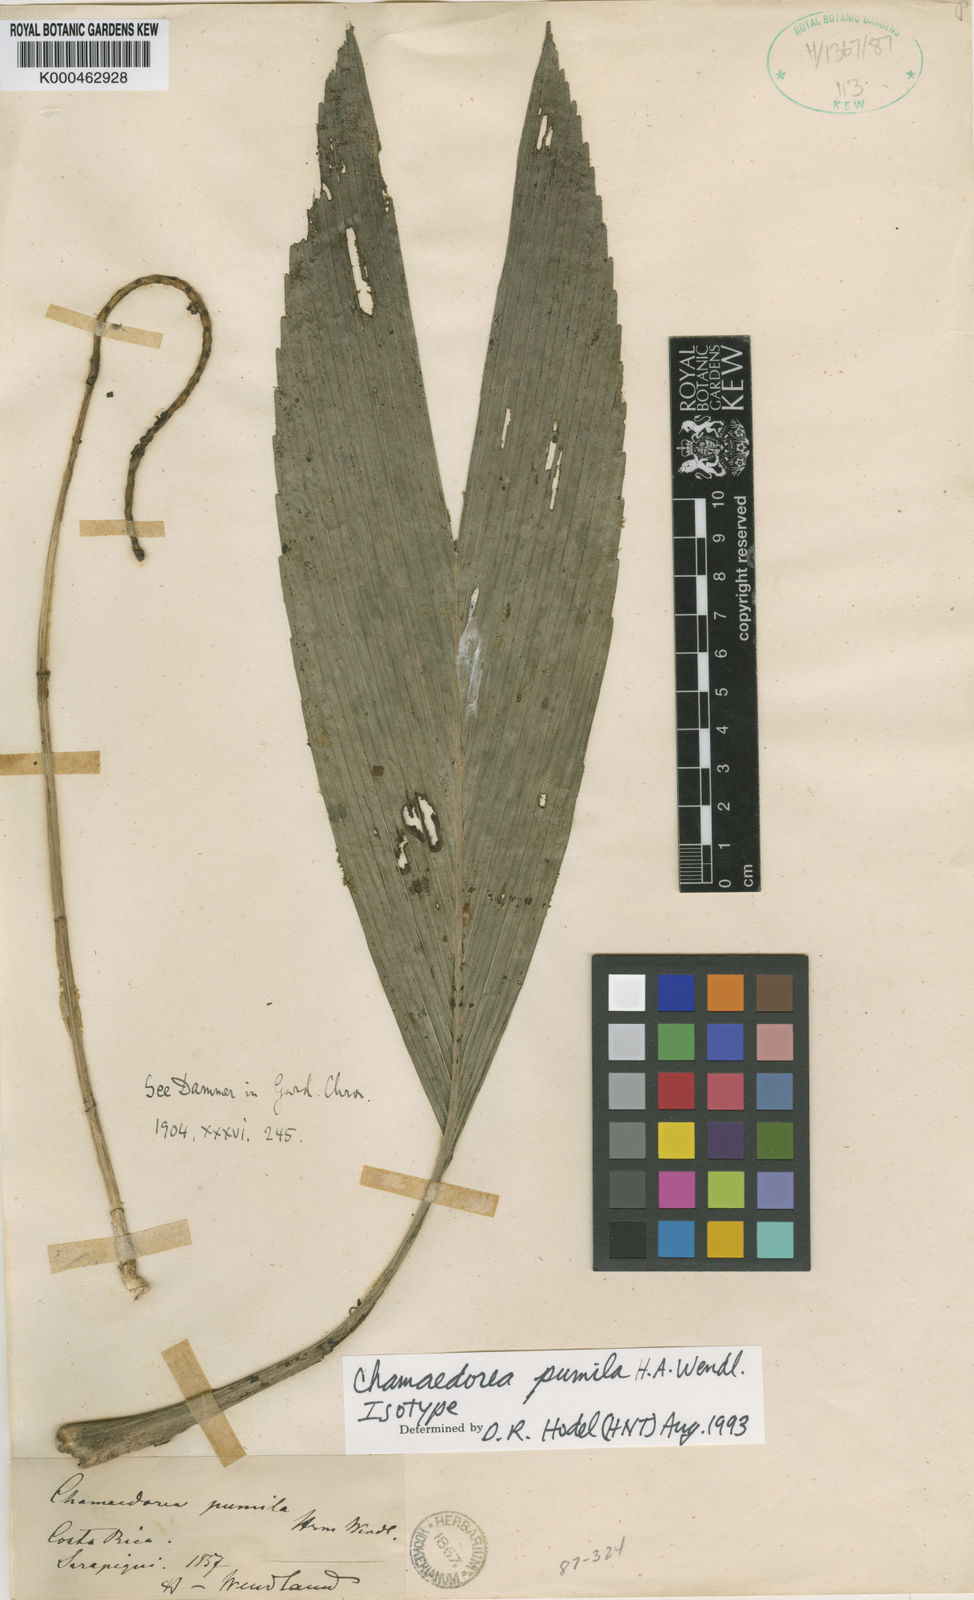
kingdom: Plantae
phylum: Tracheophyta
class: Liliopsida
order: Arecales
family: Arecaceae
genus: Chamaedorea
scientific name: Chamaedorea pumila
